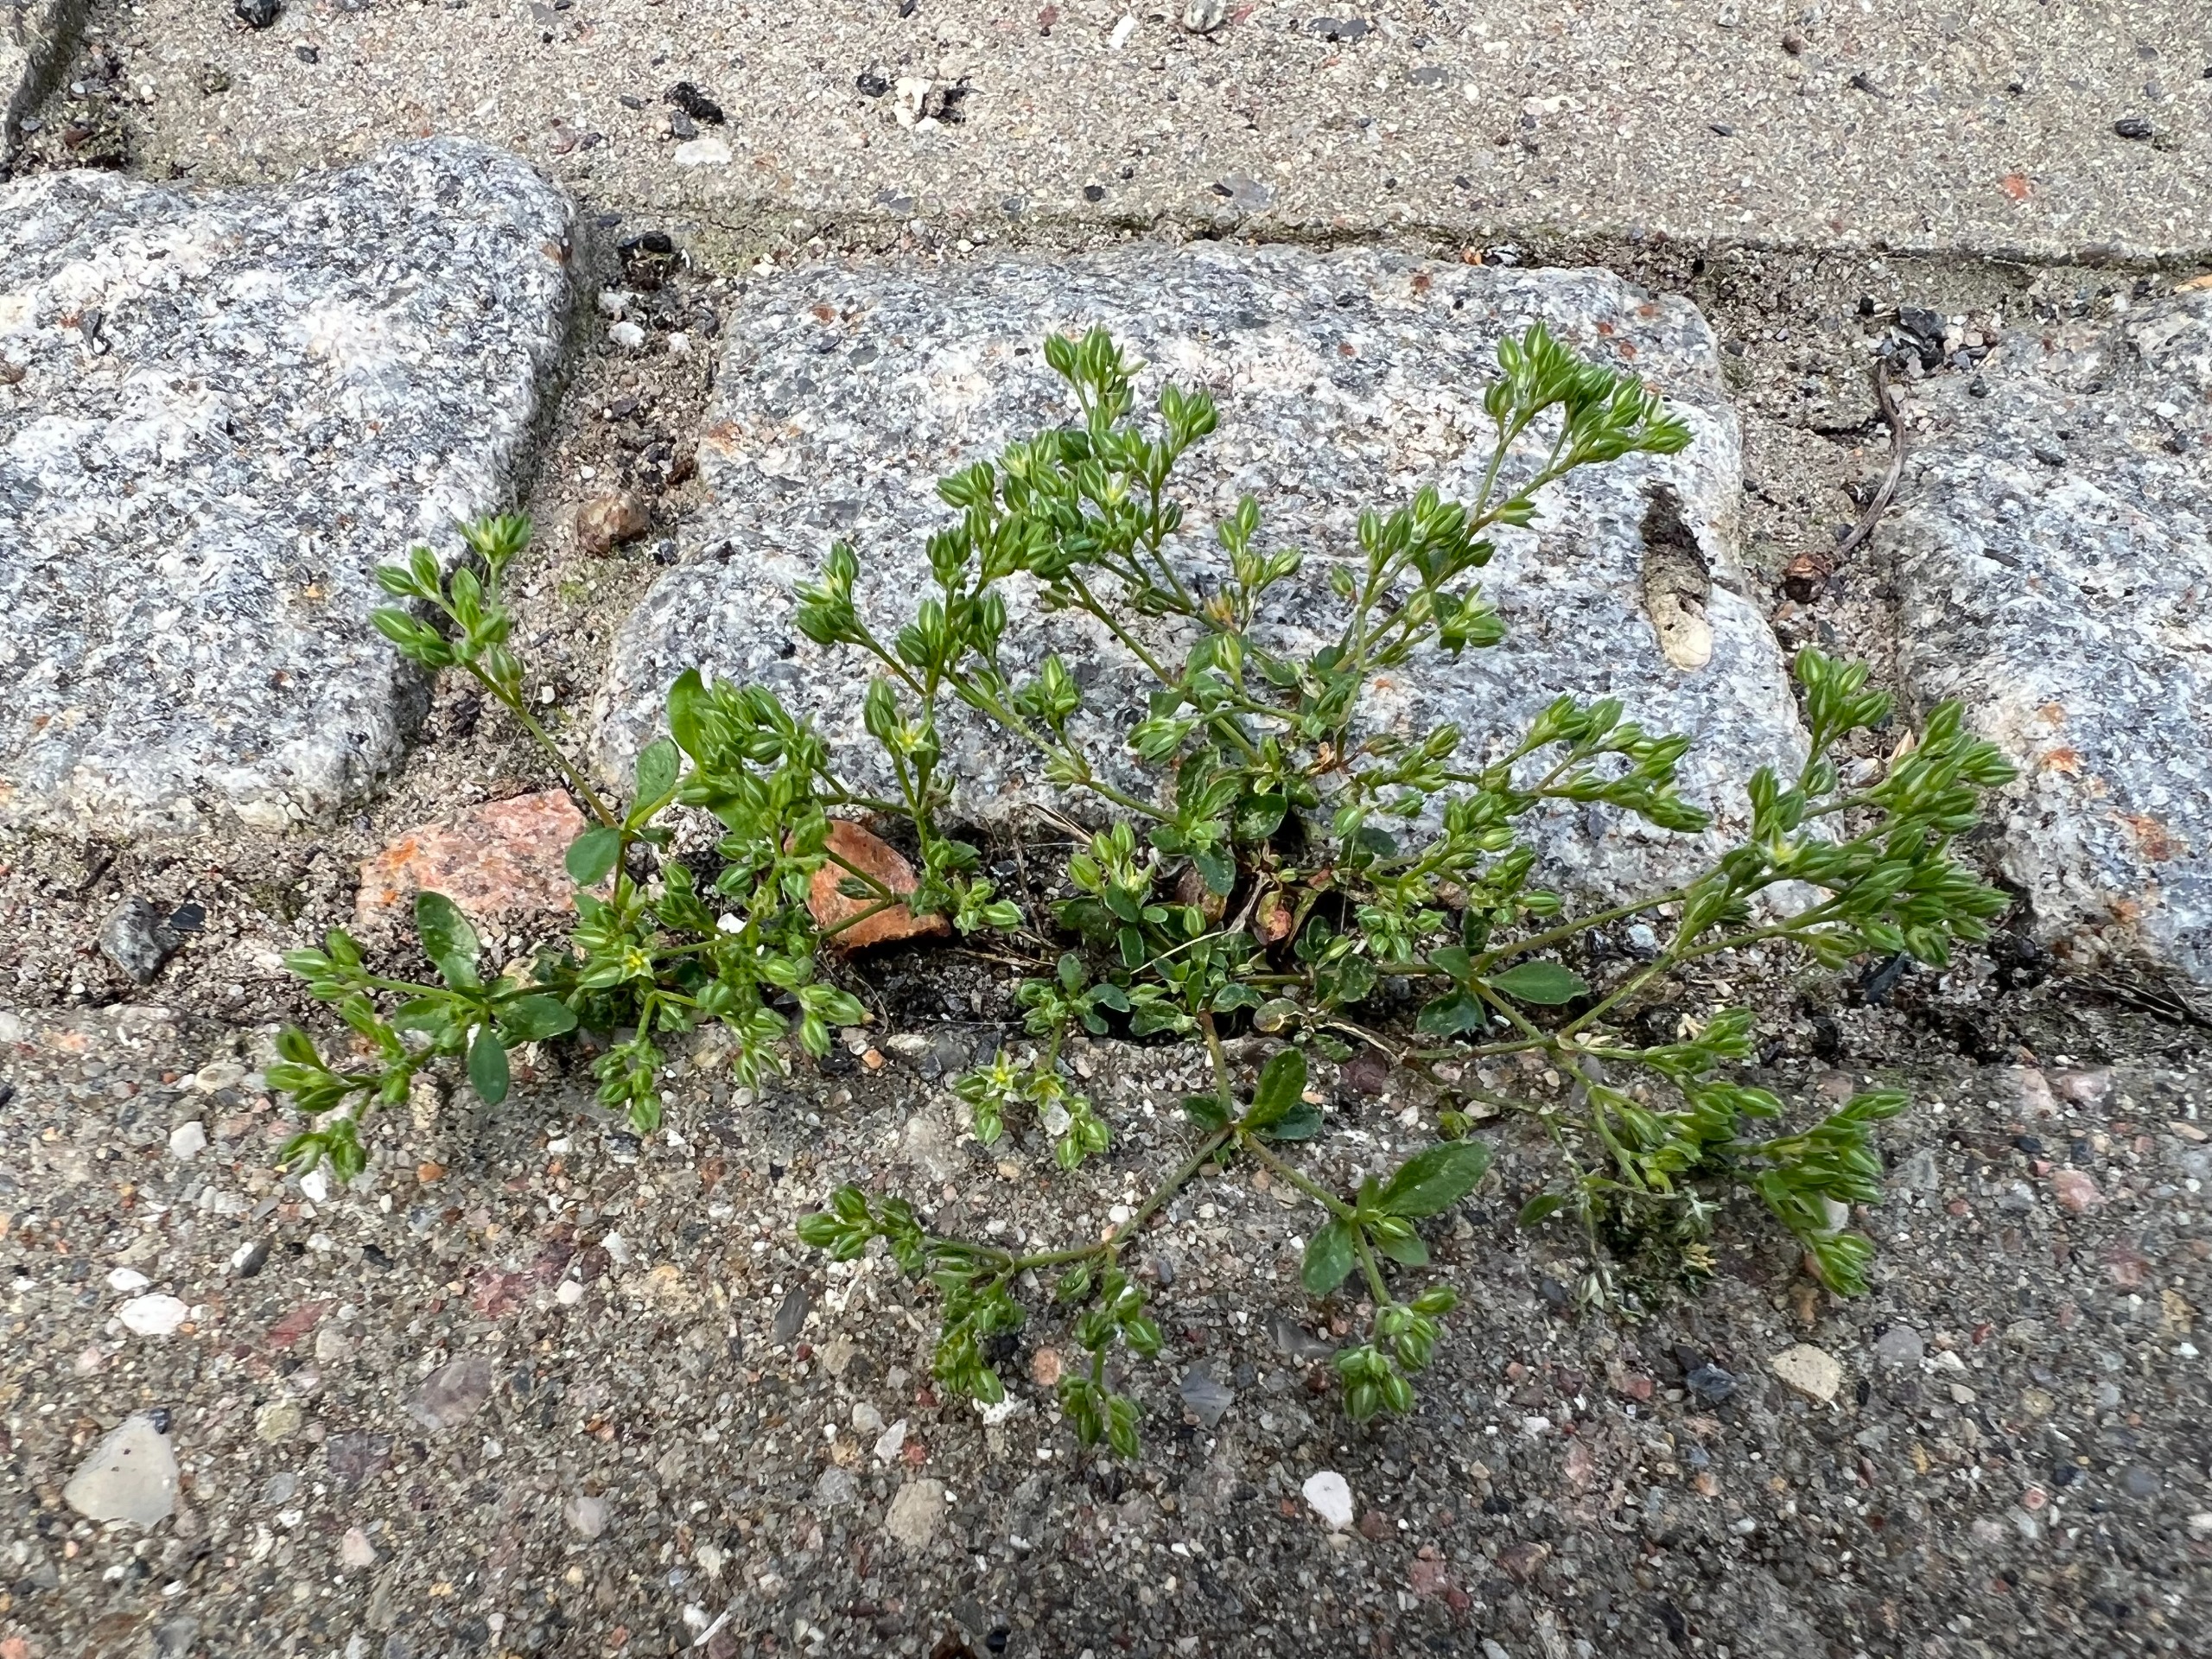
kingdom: Plantae
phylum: Tracheophyta
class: Magnoliopsida
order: Caryophyllales
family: Caryophyllaceae
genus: Polycarpon
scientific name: Polycarpon tetraphyllum
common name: Firbladet mangefrø
